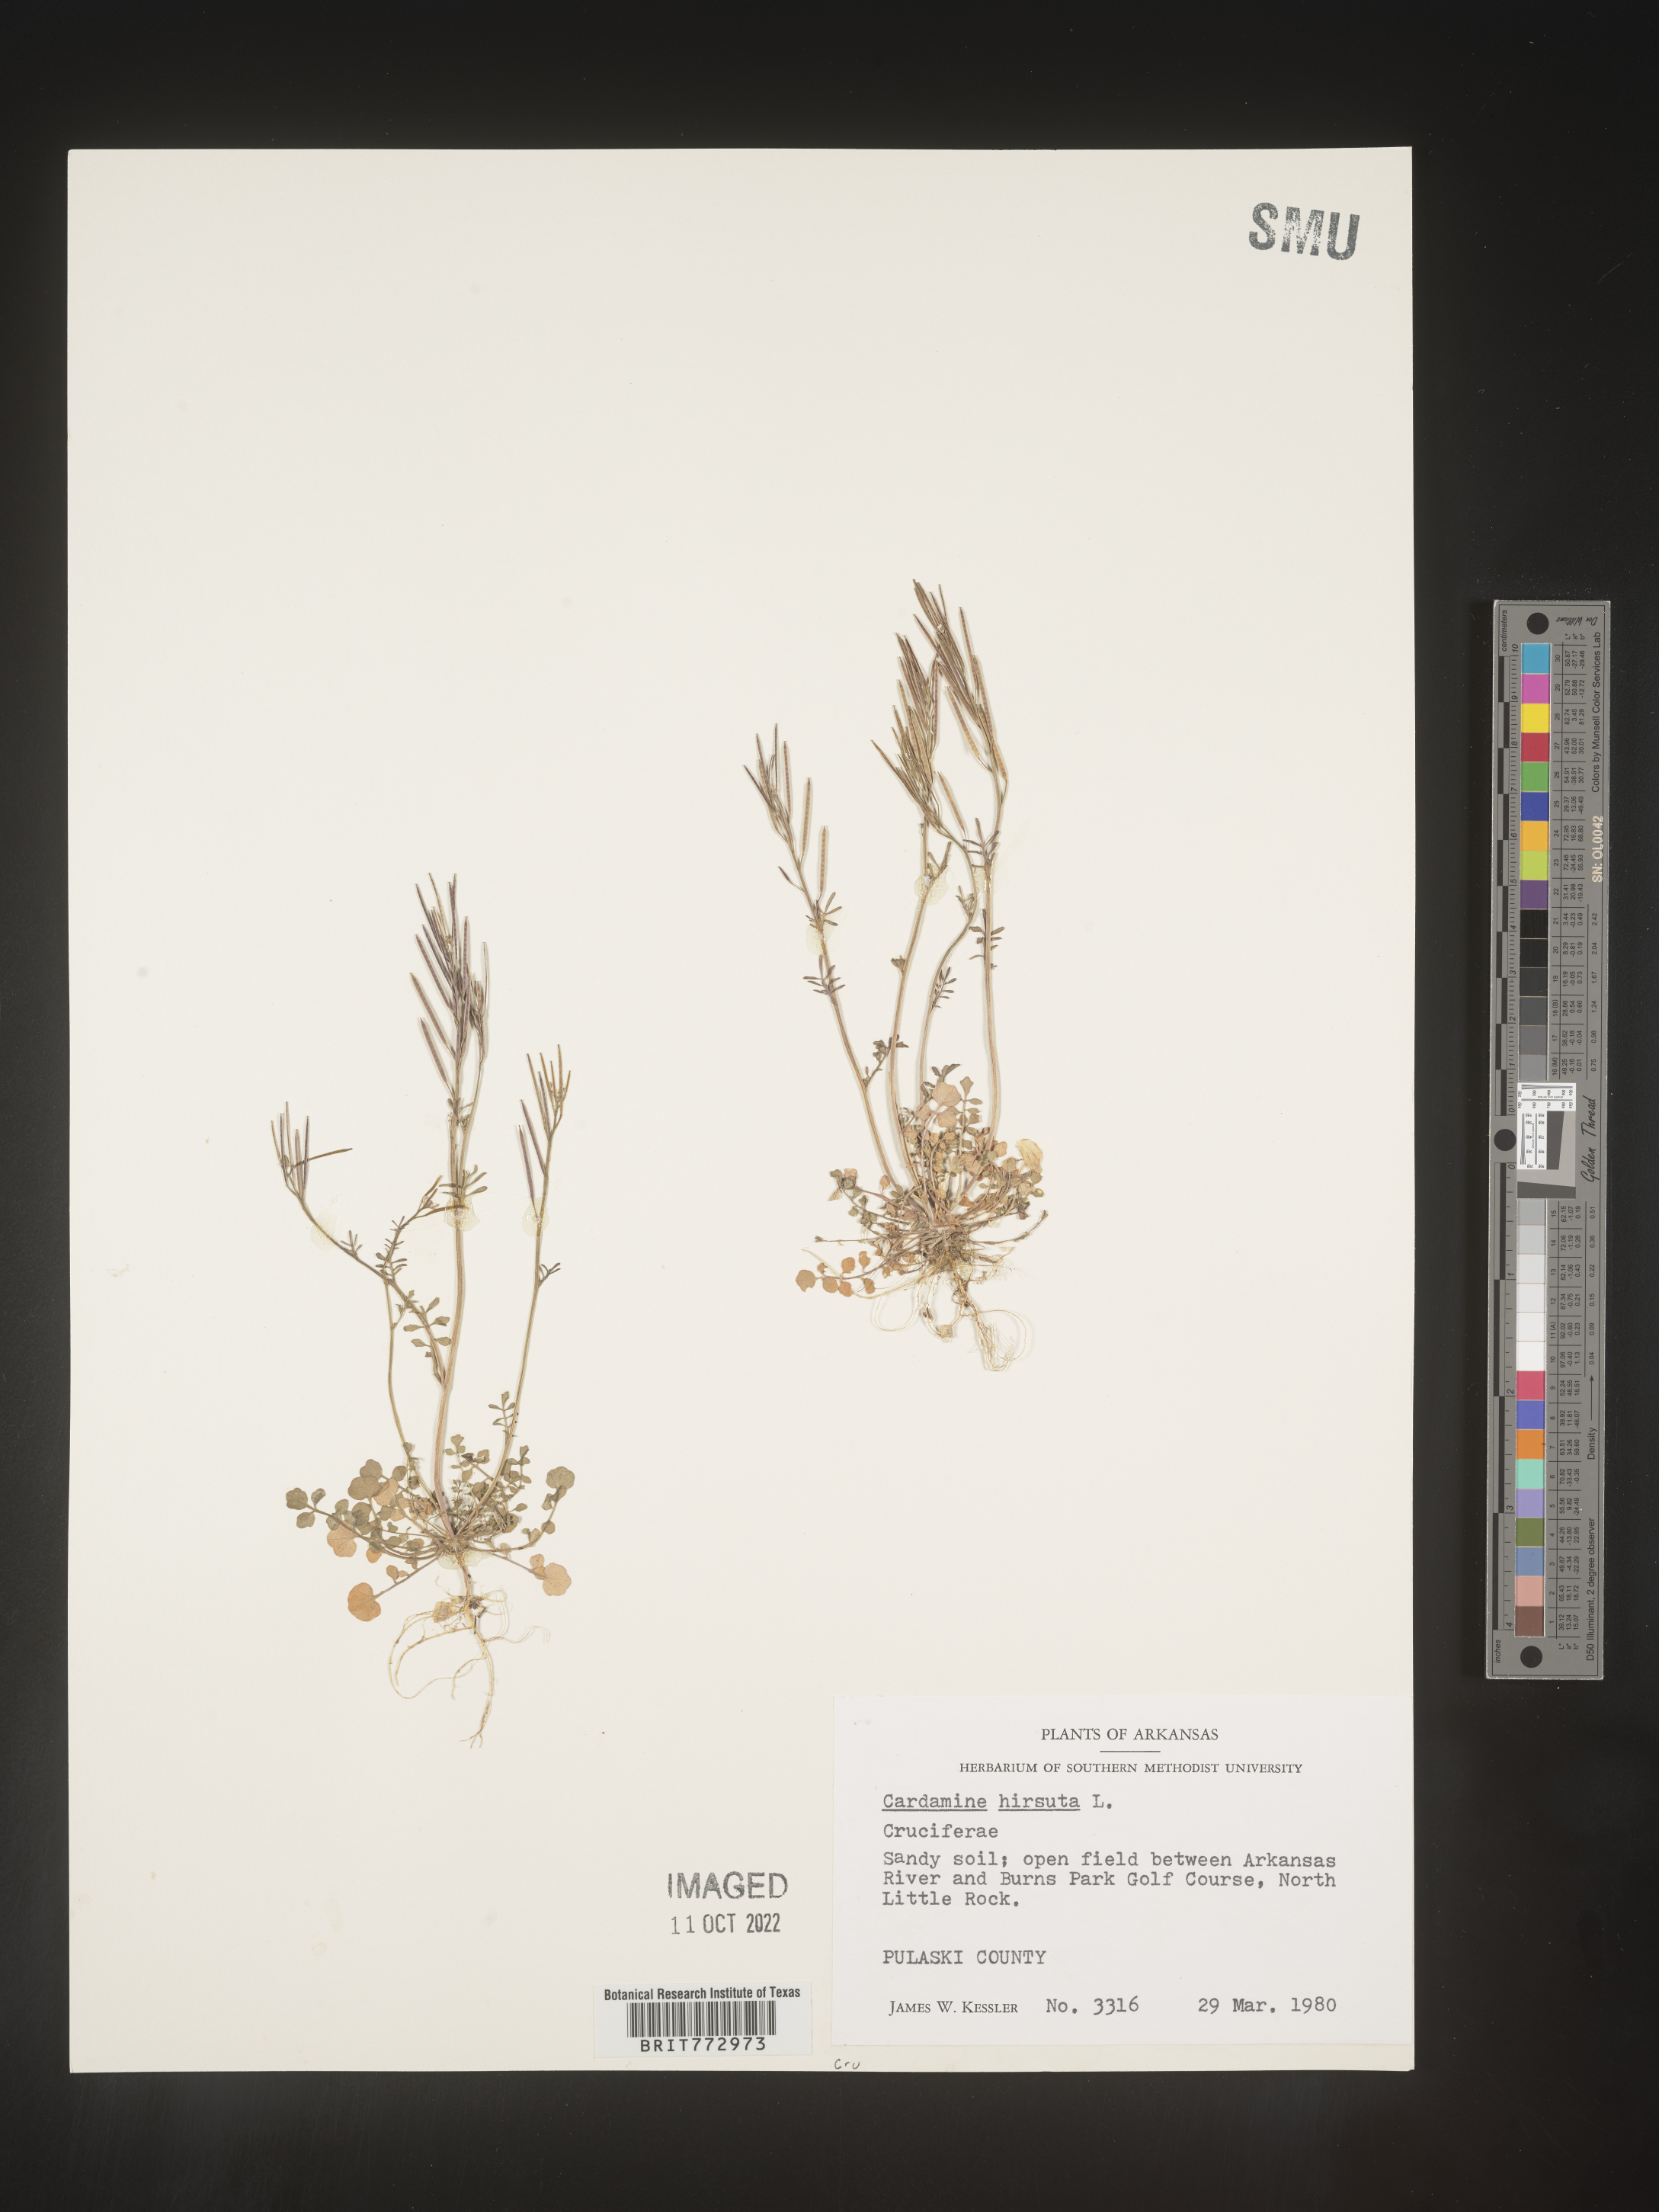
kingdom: Plantae
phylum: Tracheophyta
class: Magnoliopsida
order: Brassicales
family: Brassicaceae
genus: Cardamine
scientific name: Cardamine hirsuta
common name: Hairy bittercress
